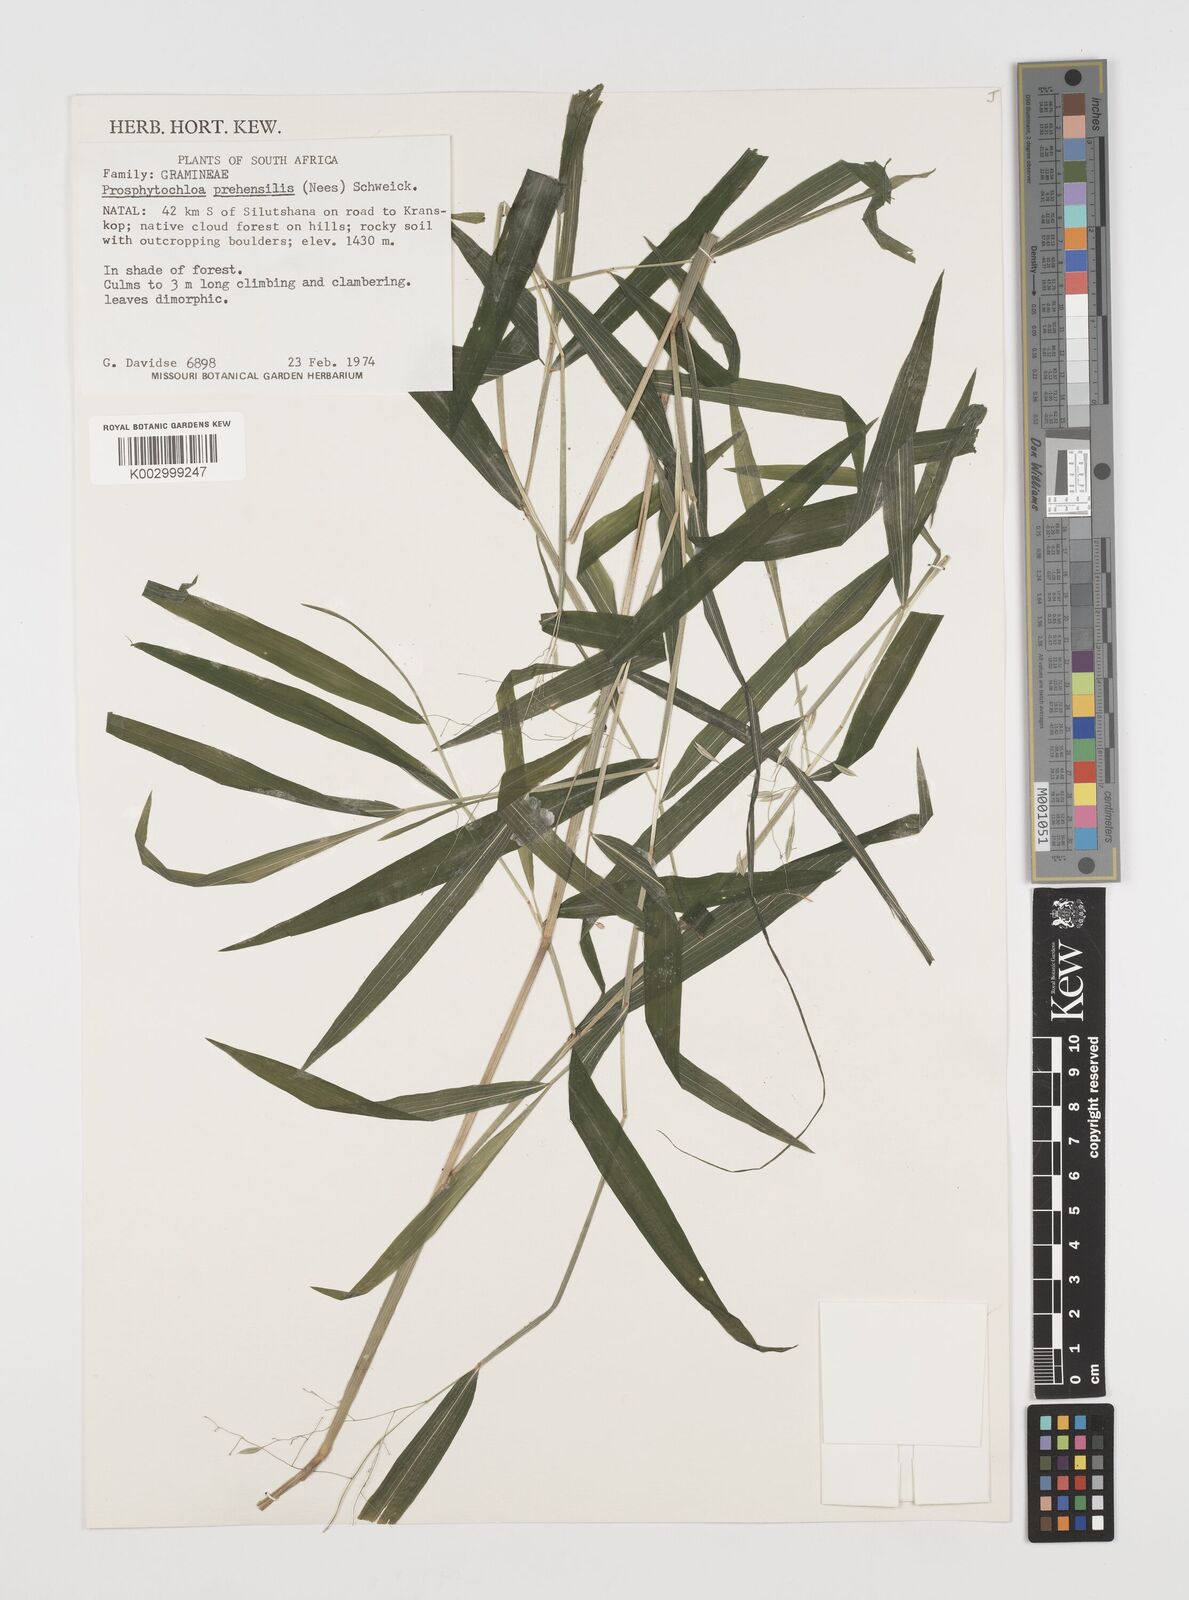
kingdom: Plantae
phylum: Tracheophyta
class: Liliopsida
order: Poales
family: Poaceae
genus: Prosphytochloa
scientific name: Prosphytochloa prehensilis
